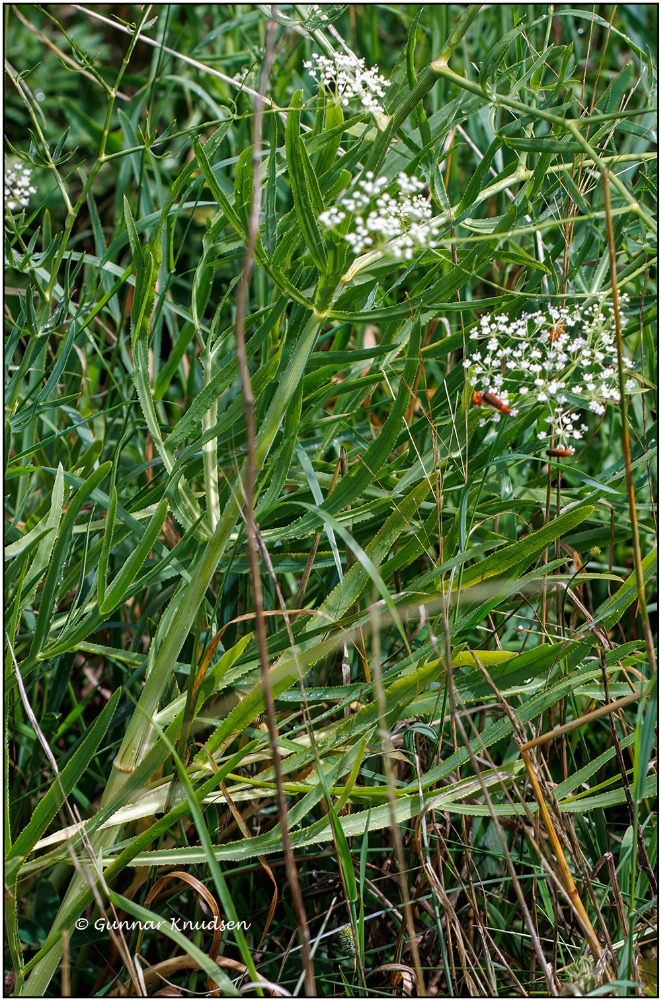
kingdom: Plantae
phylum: Tracheophyta
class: Magnoliopsida
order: Apiales
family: Apiaceae
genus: Falcaria
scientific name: Falcaria vulgaris
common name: Seglblad
